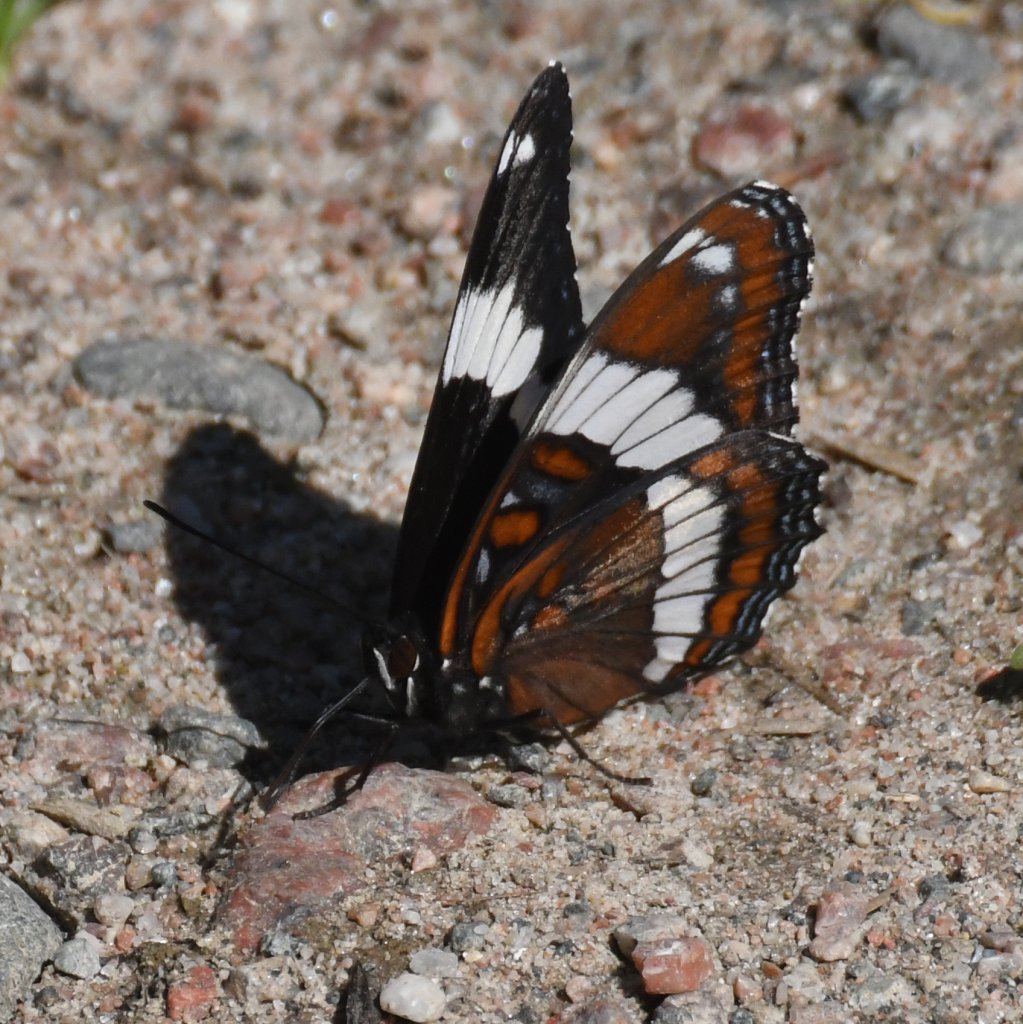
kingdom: Animalia
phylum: Arthropoda
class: Insecta
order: Lepidoptera
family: Nymphalidae
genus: Limenitis
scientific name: Limenitis arthemis
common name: Red-spotted Admiral
